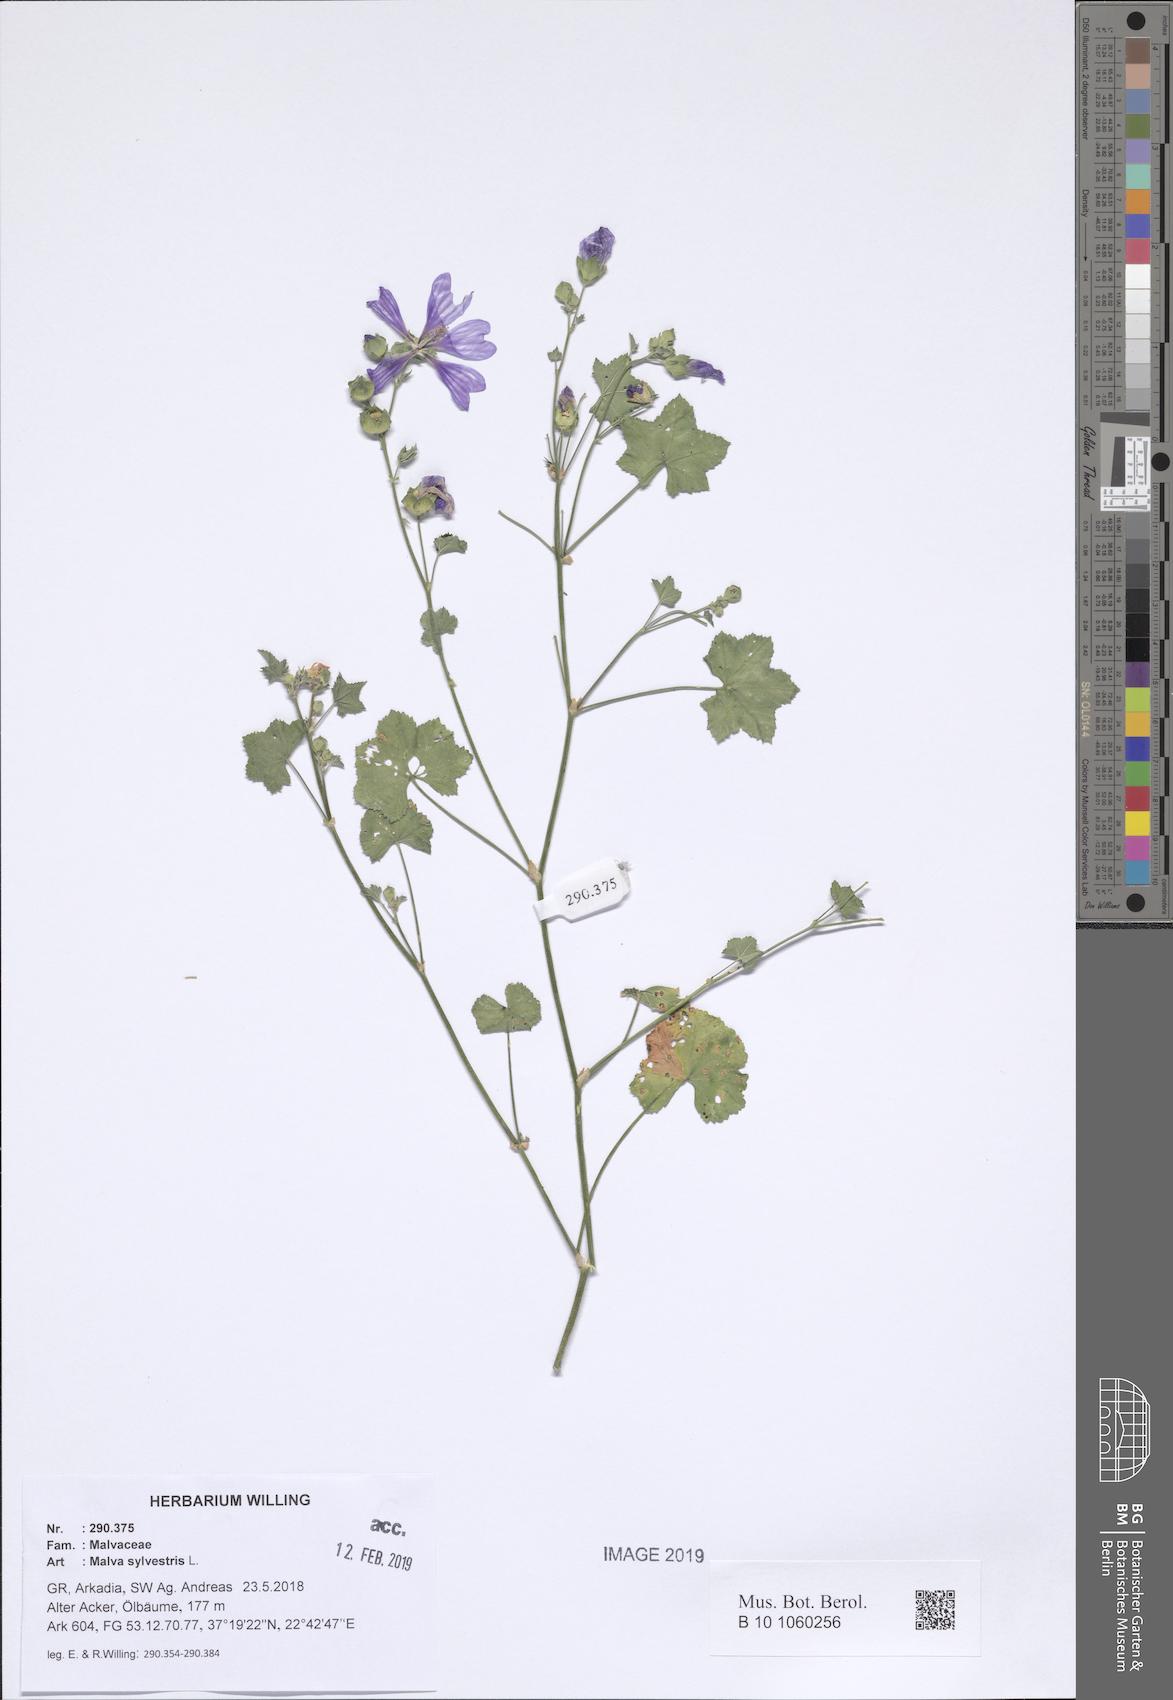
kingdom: Plantae
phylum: Tracheophyta
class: Magnoliopsida
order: Malvales
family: Malvaceae
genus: Malva
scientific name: Malva sylvestris
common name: Common mallow
